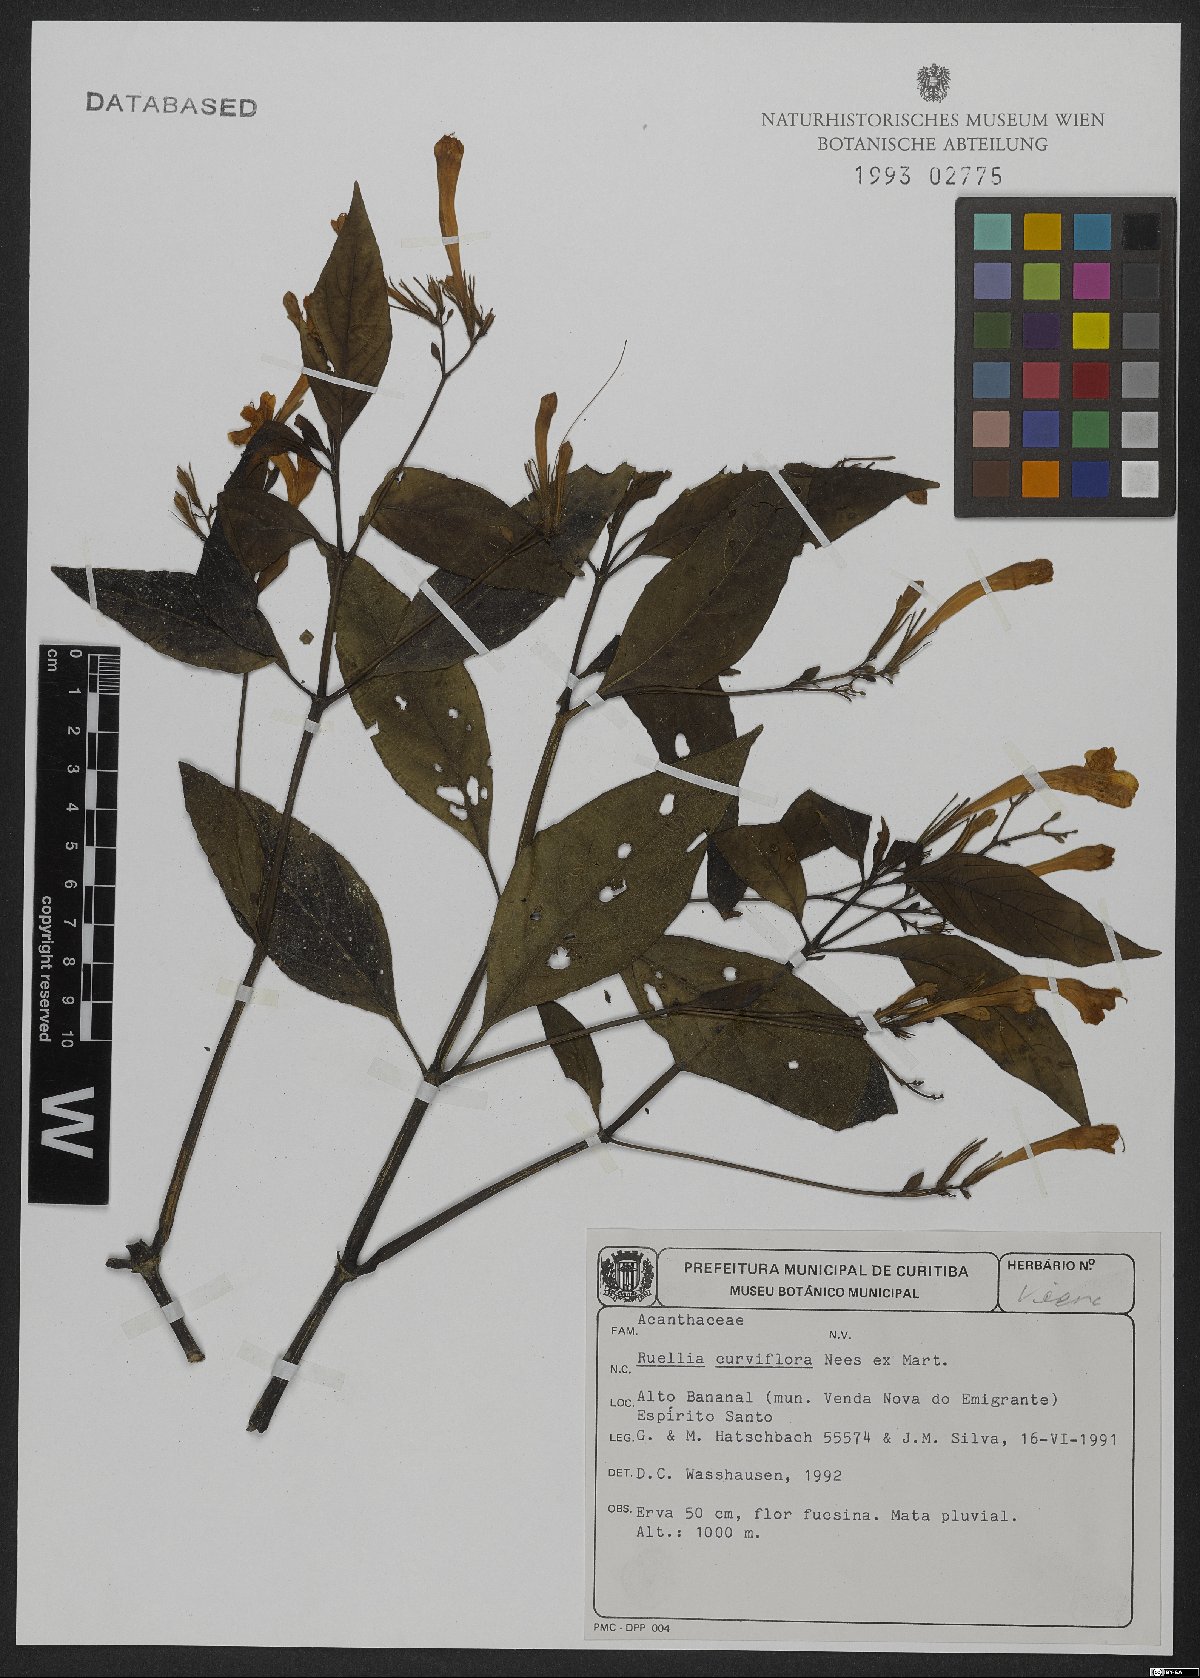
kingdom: Plantae
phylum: Tracheophyta
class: Magnoliopsida
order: Lamiales
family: Acanthaceae
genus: Ruellia
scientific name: Ruellia curviflora
